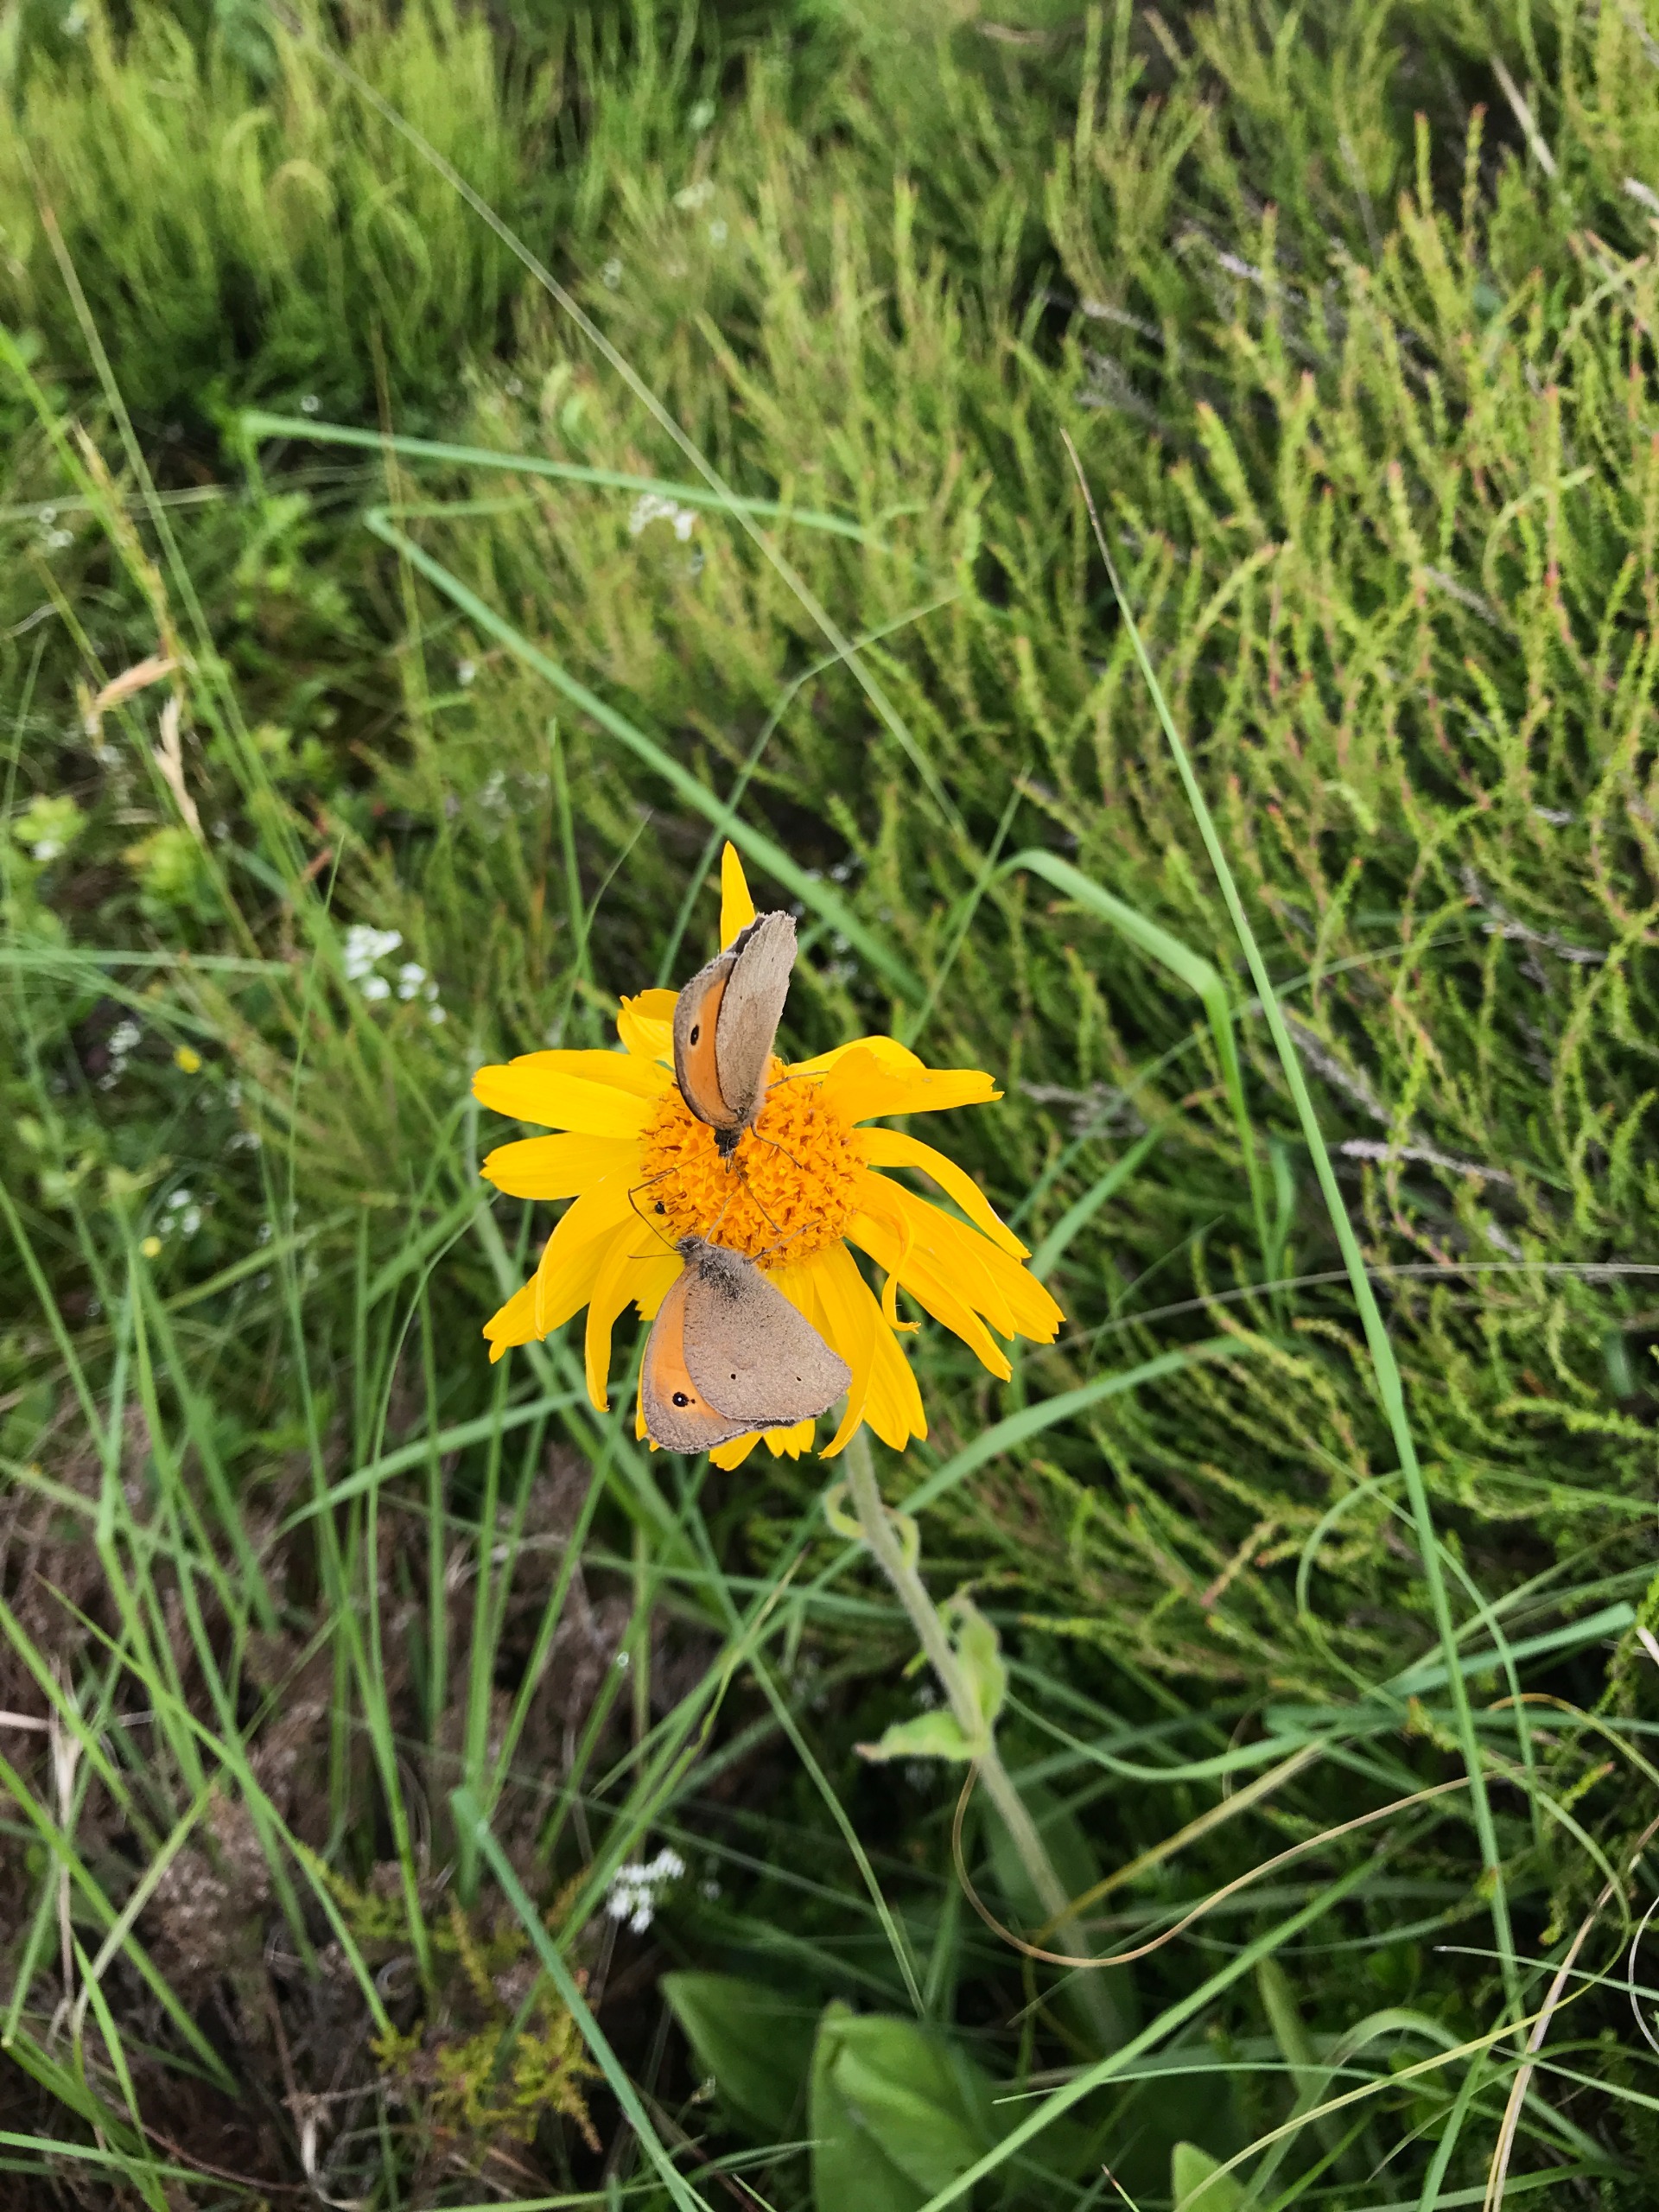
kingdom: Animalia
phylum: Arthropoda
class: Insecta
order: Lepidoptera
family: Nymphalidae
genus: Maniola
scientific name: Maniola jurtina
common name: Græsrandøje
